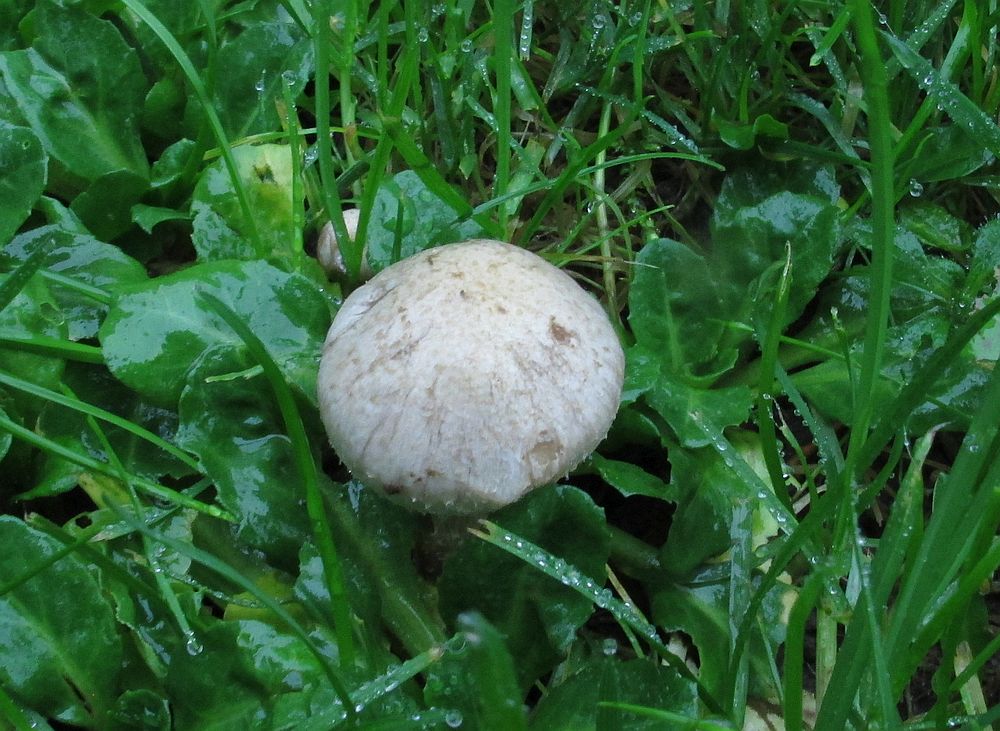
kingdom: Fungi
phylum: Basidiomycota
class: Agaricomycetes
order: Agaricales
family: Strophariaceae
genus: Pholiota
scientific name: Pholiota gummosa
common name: grøngul skælhat
